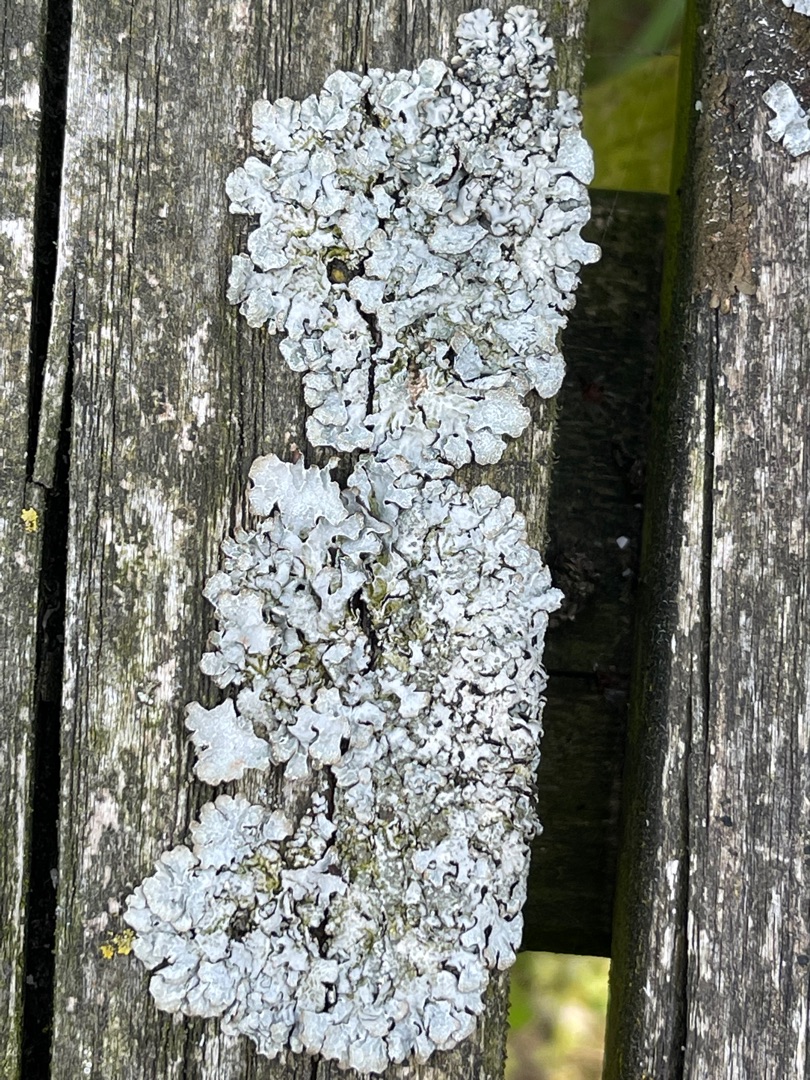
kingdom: Fungi
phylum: Ascomycota
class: Lecanoromycetes
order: Lecanorales
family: Parmeliaceae
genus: Parmelia
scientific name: Parmelia sulcata
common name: Rynket skållav
